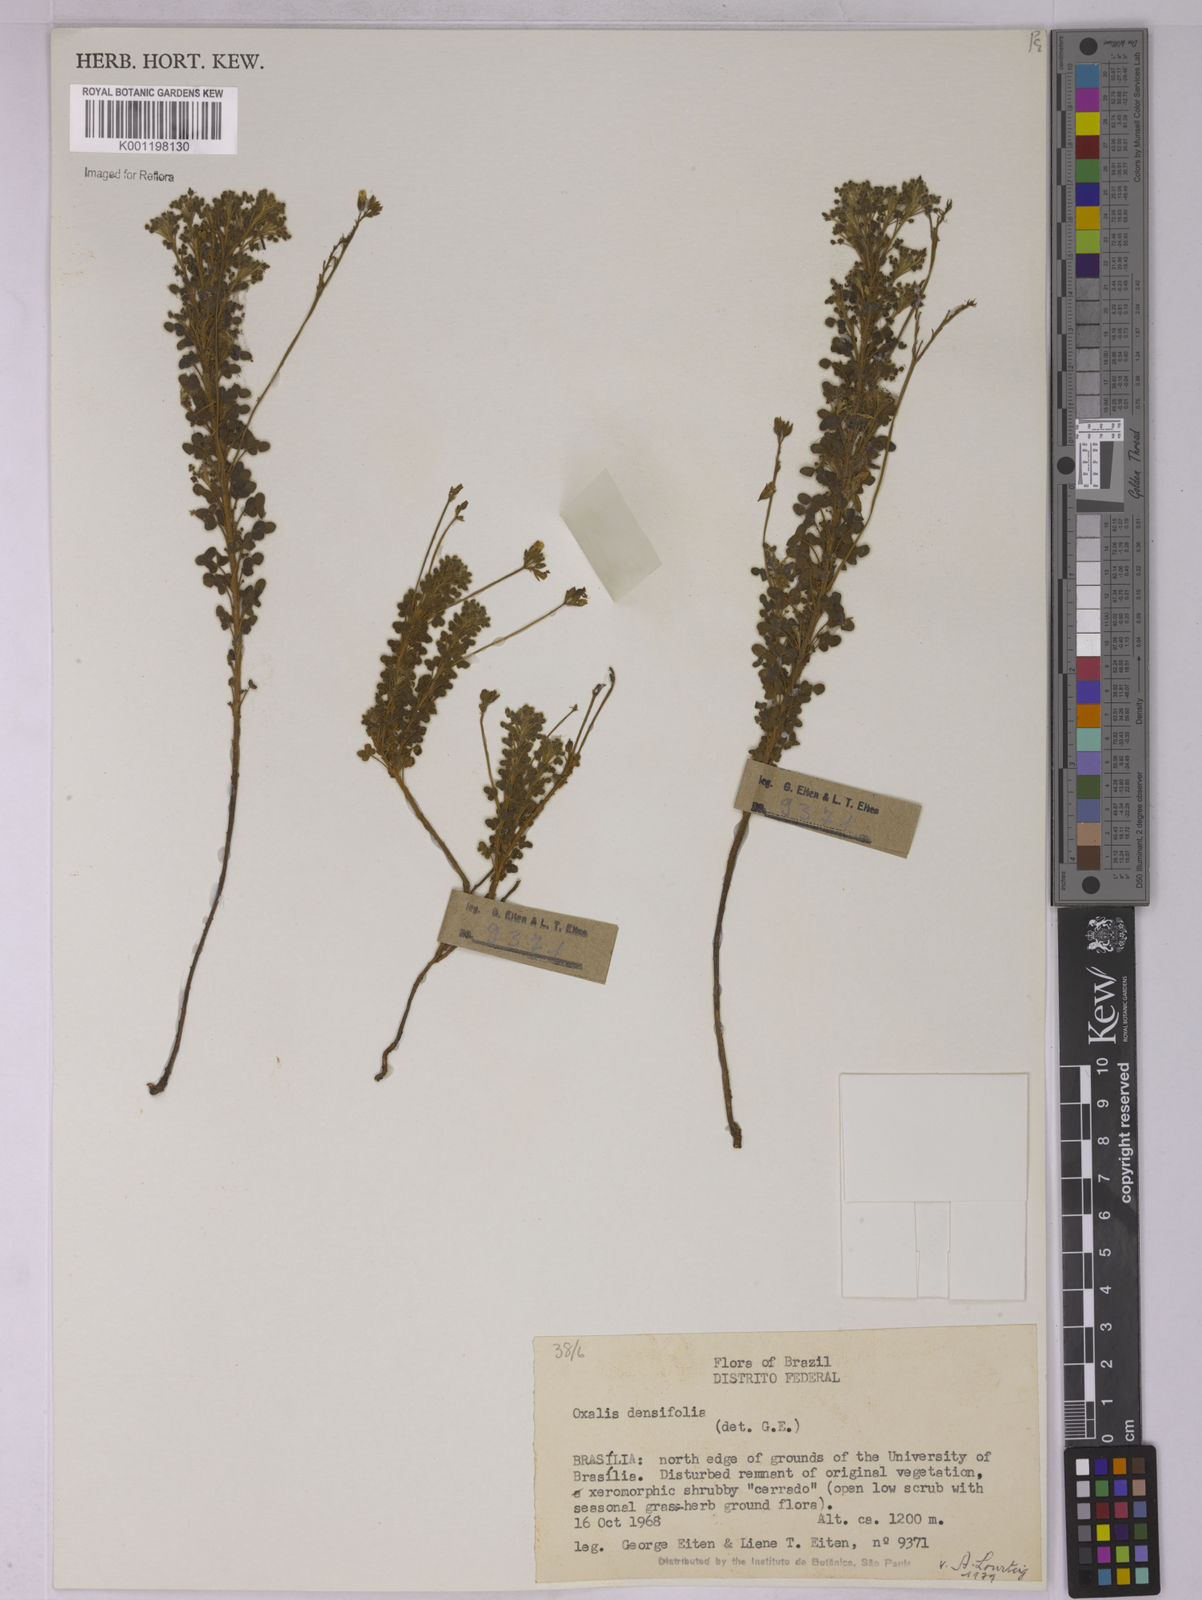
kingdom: Plantae
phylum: Tracheophyta
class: Magnoliopsida
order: Oxalidales
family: Oxalidaceae
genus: Oxalis
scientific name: Oxalis densifolia
